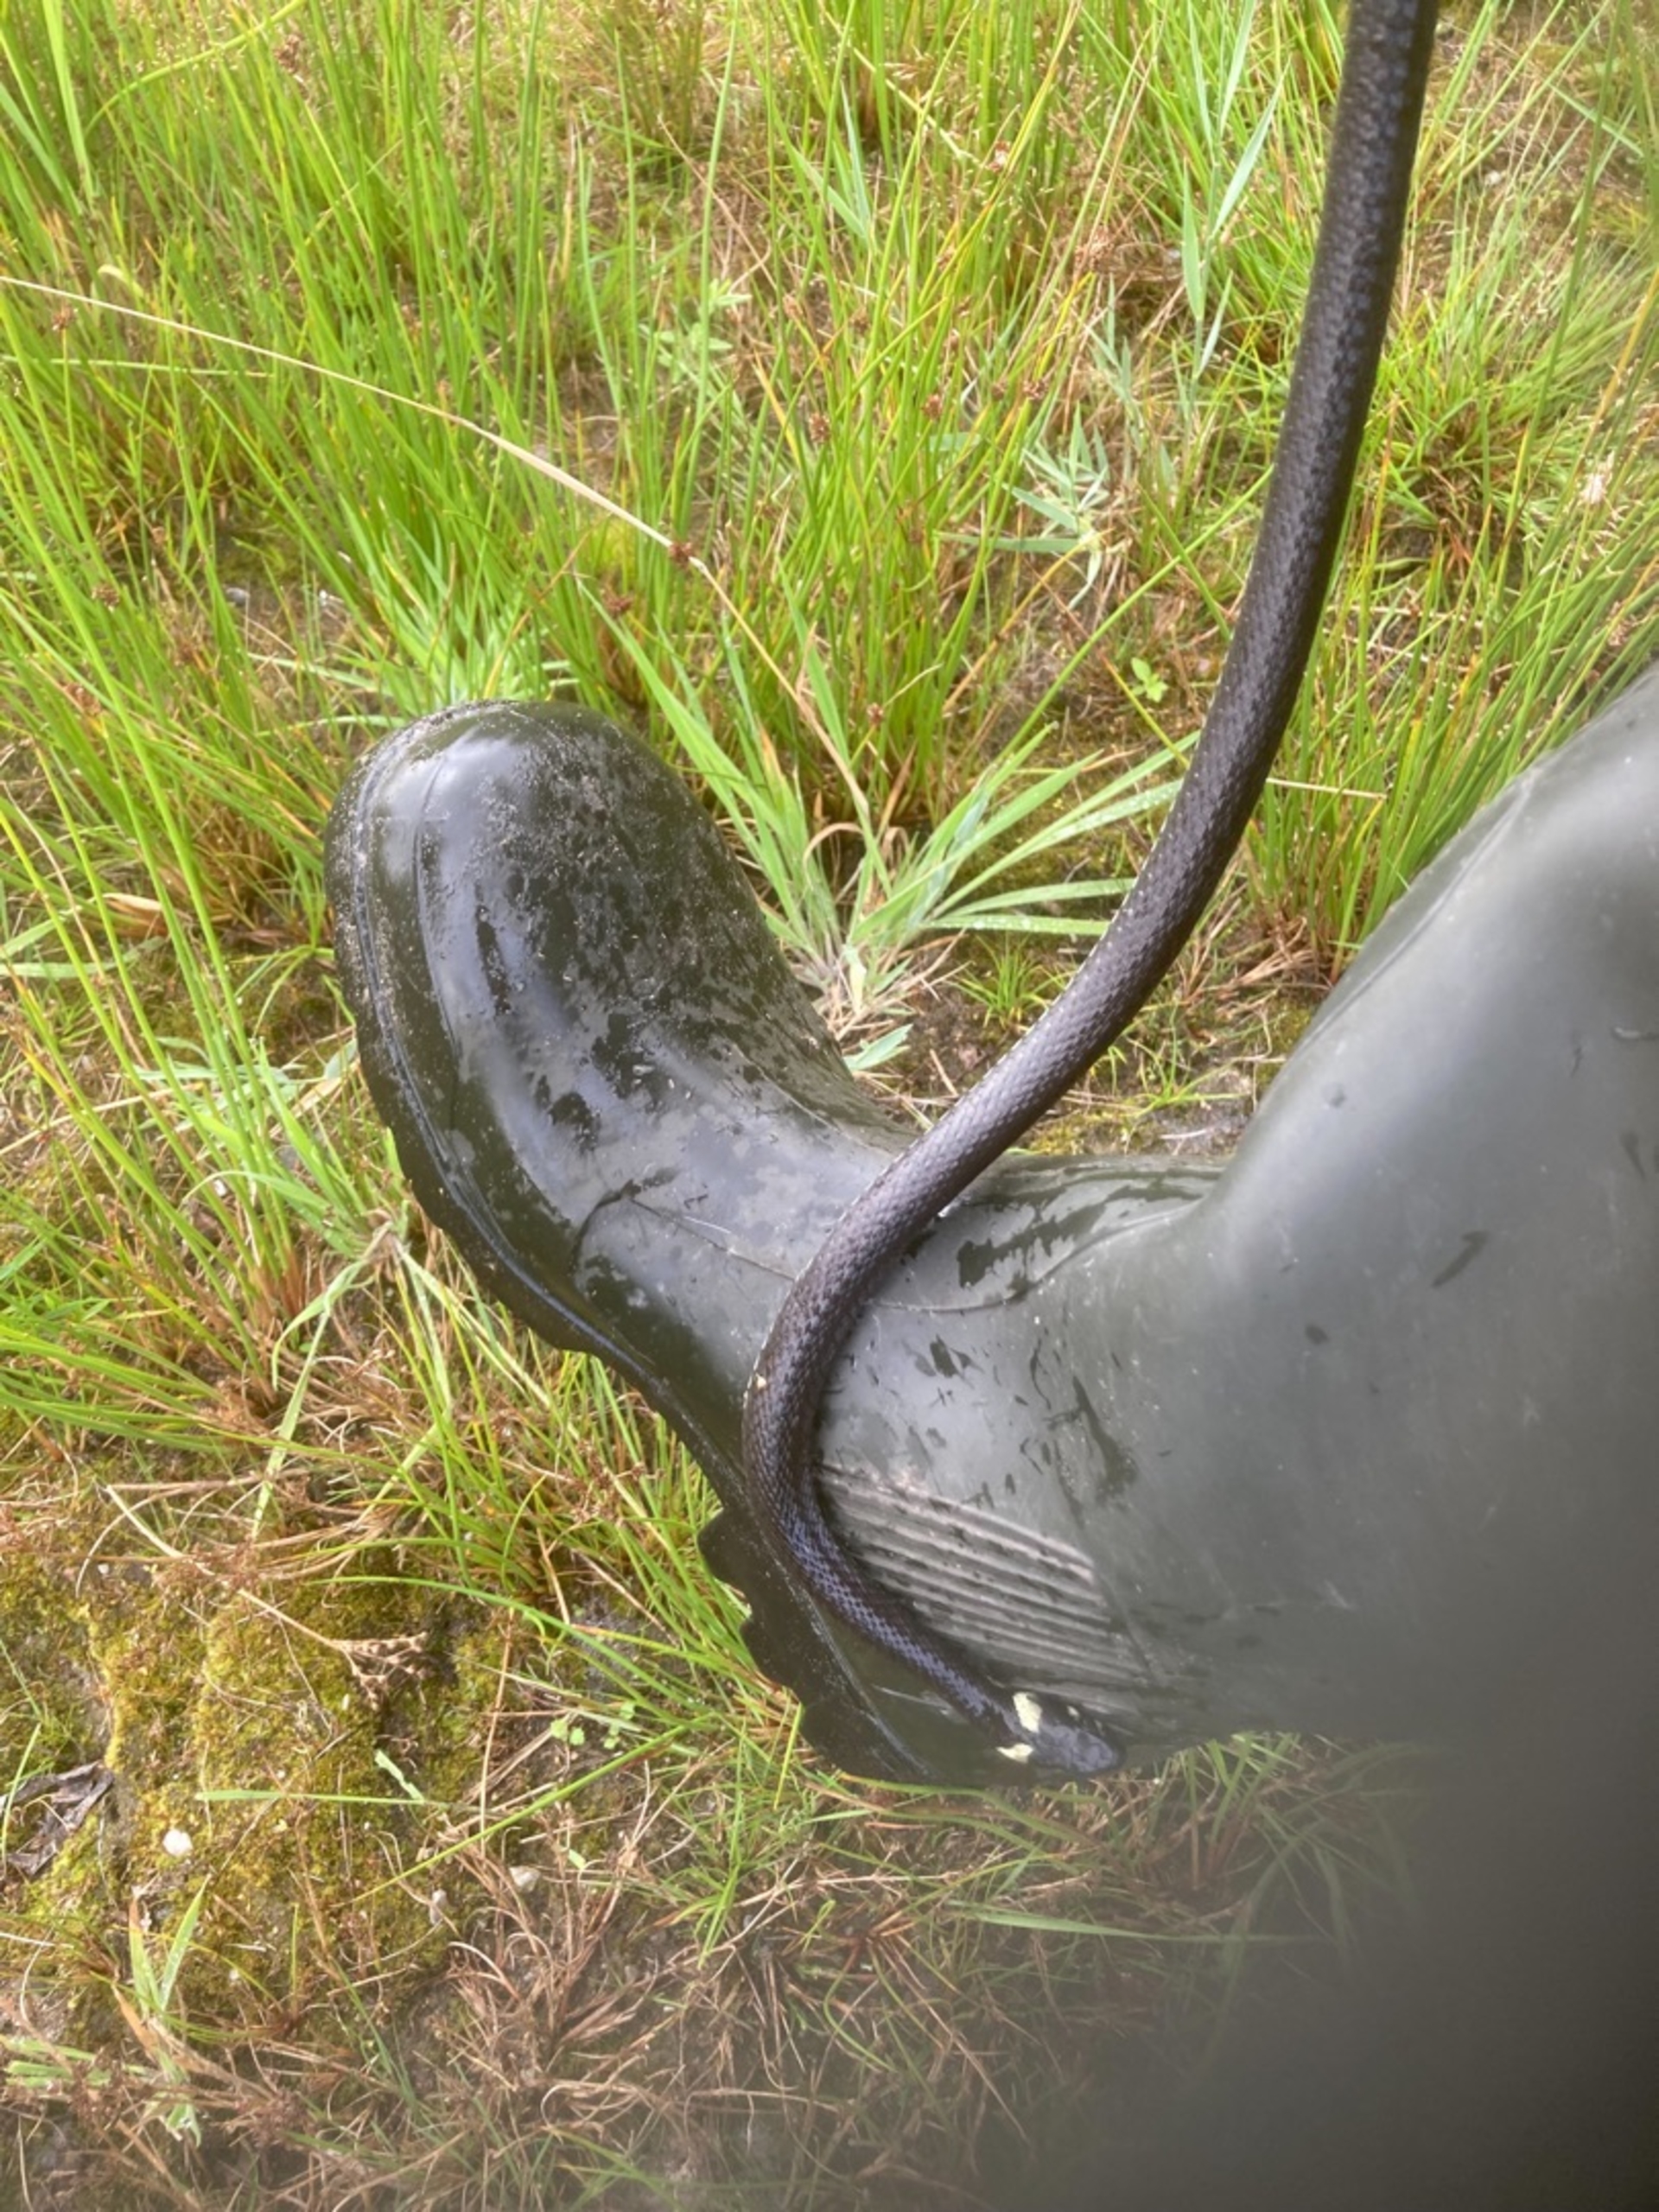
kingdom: Animalia
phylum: Chordata
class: Squamata
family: Colubridae
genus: Natrix
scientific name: Natrix natrix
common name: Snog
